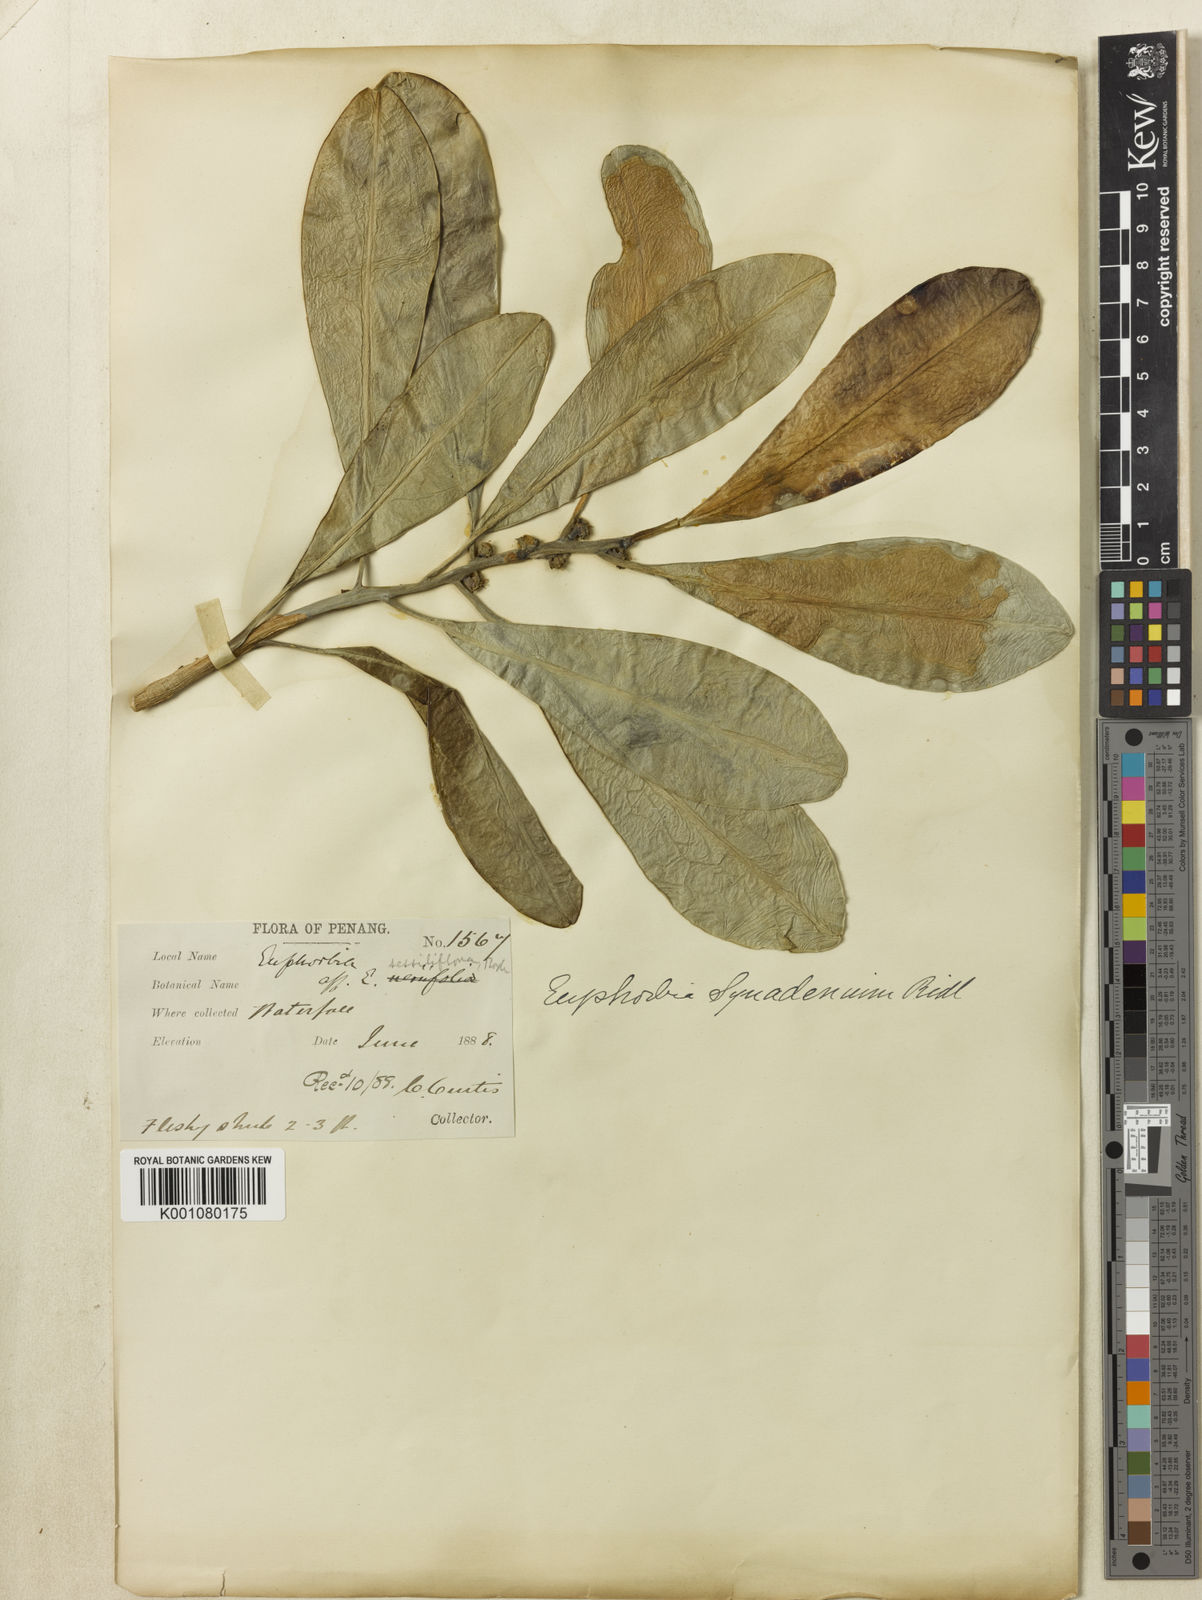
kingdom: Plantae
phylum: Tracheophyta
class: Magnoliopsida
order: Malpighiales
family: Euphorbiaceae
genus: Euphorbia
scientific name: Euphorbia ridleyi
